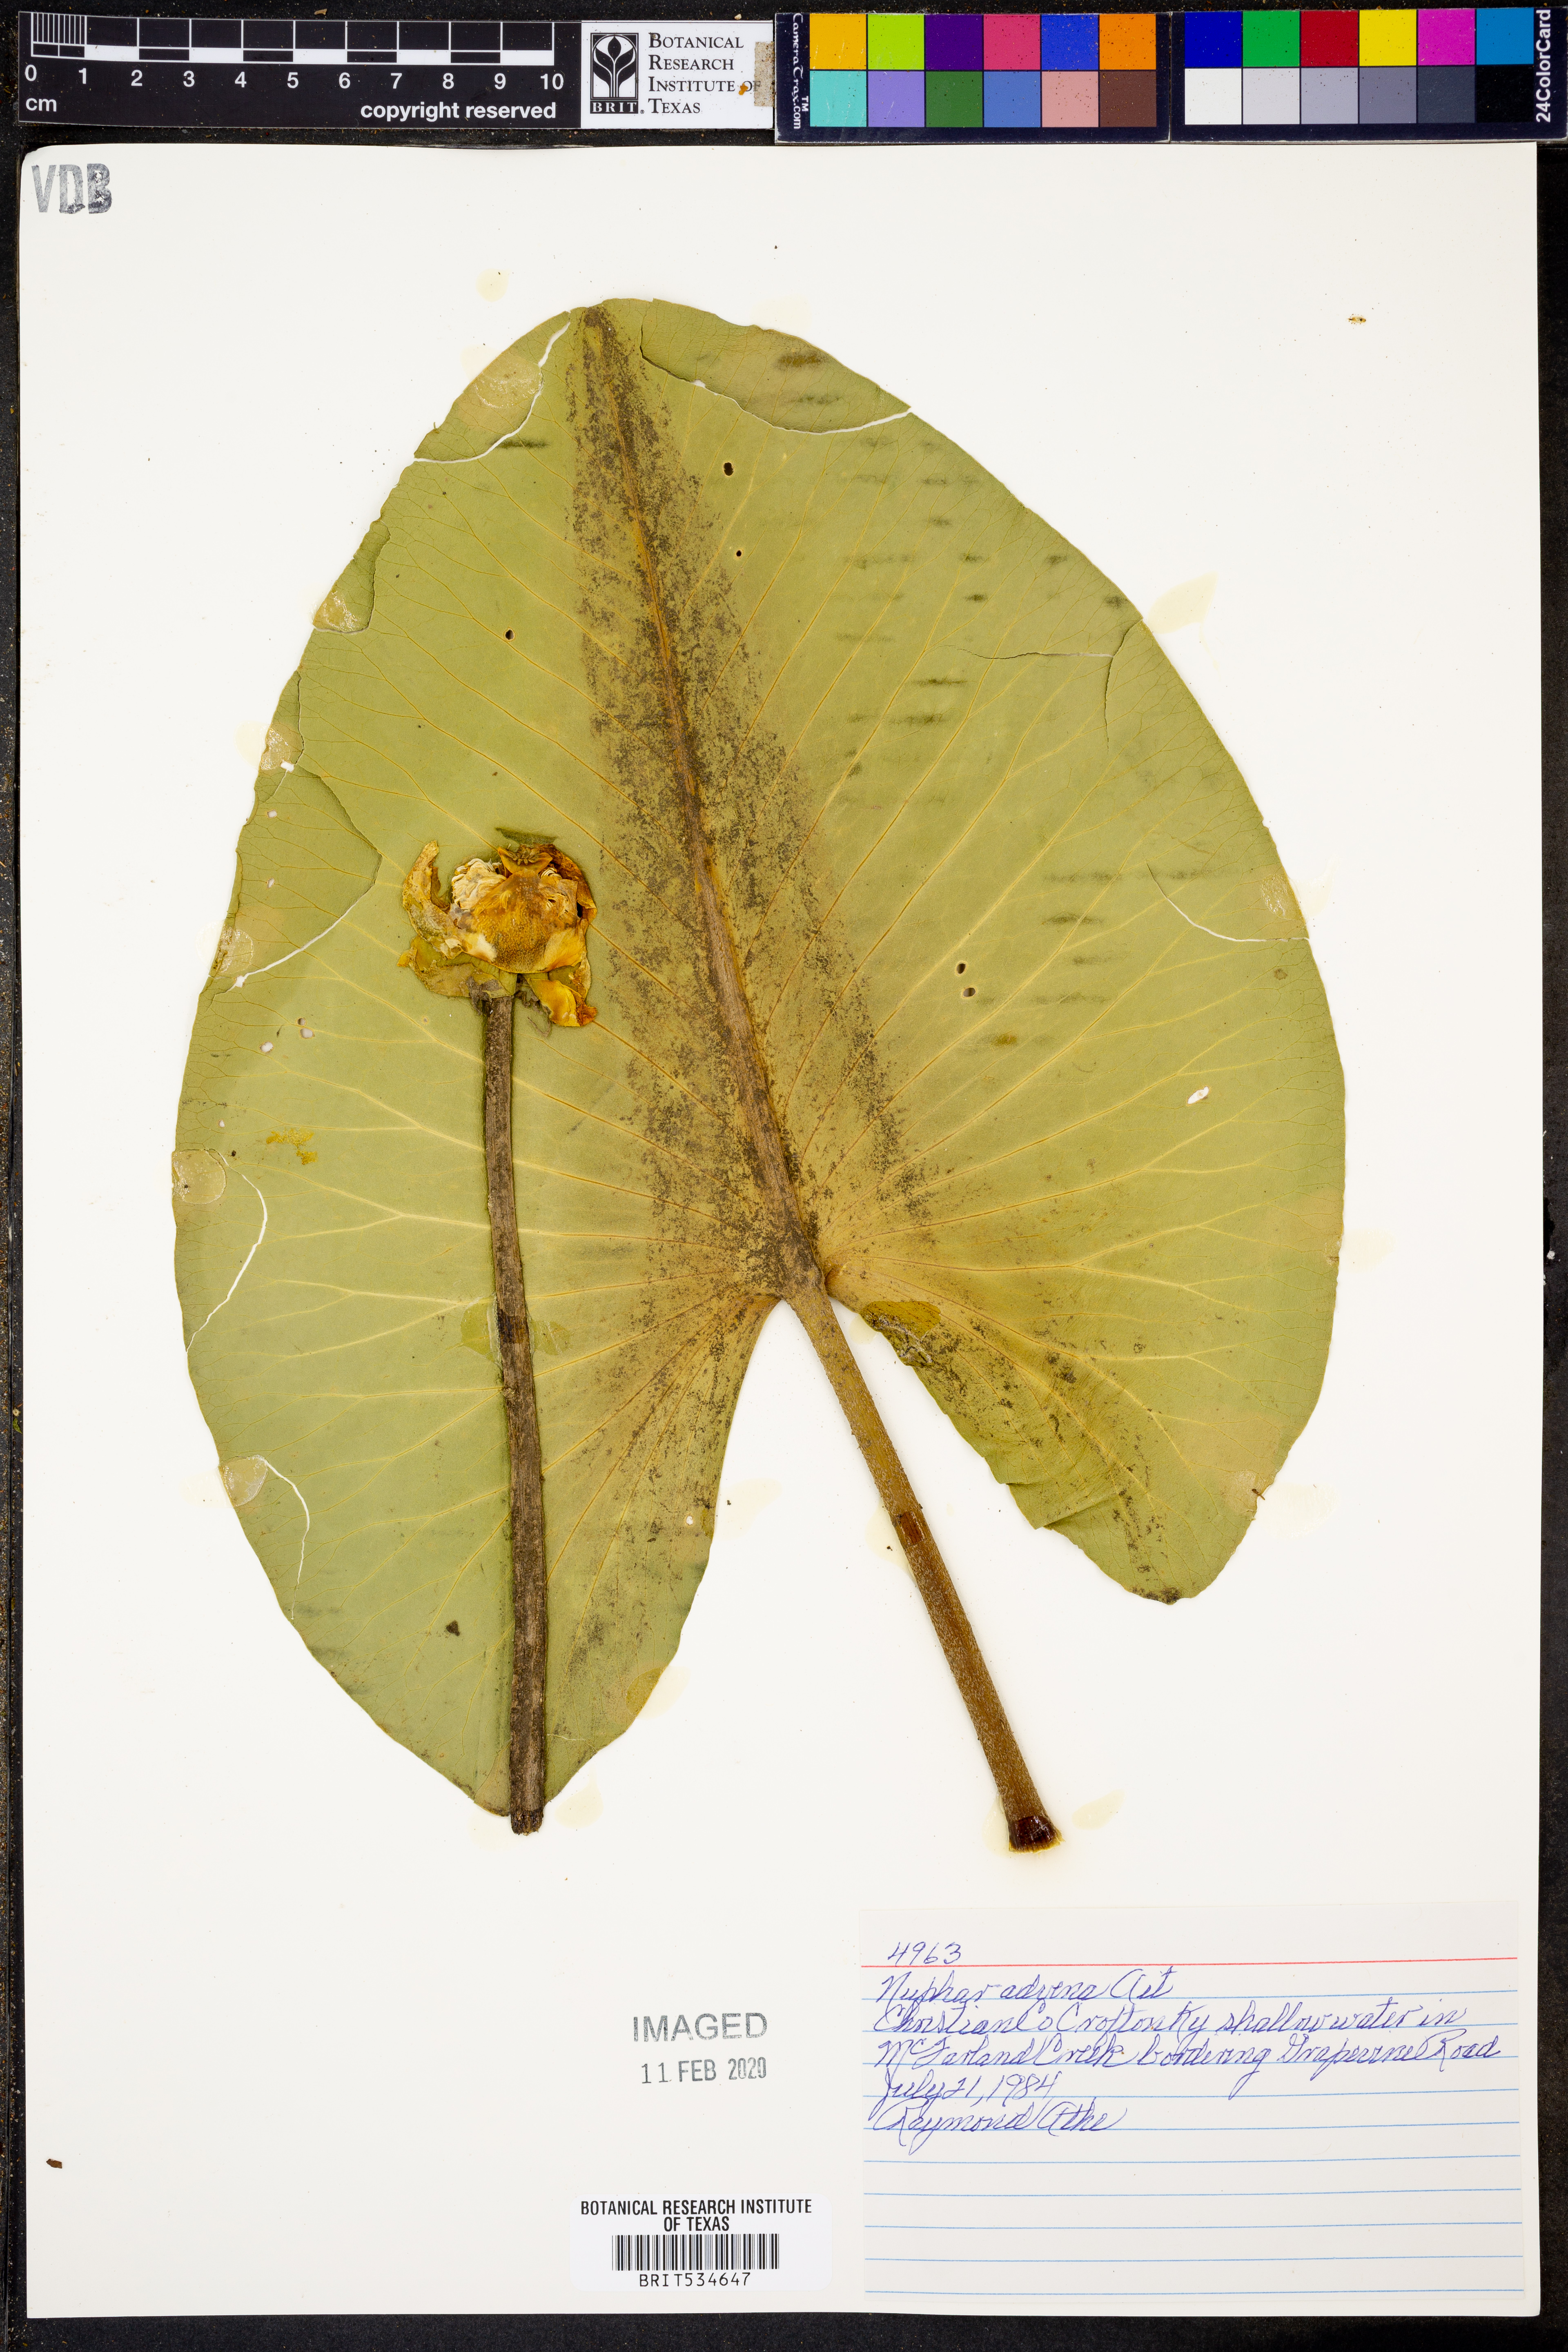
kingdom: Plantae
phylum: Tracheophyta
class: Magnoliopsida
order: Nymphaeales
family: Nymphaeaceae
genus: Nuphar
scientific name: Nuphar advena
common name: Spatter-dock
